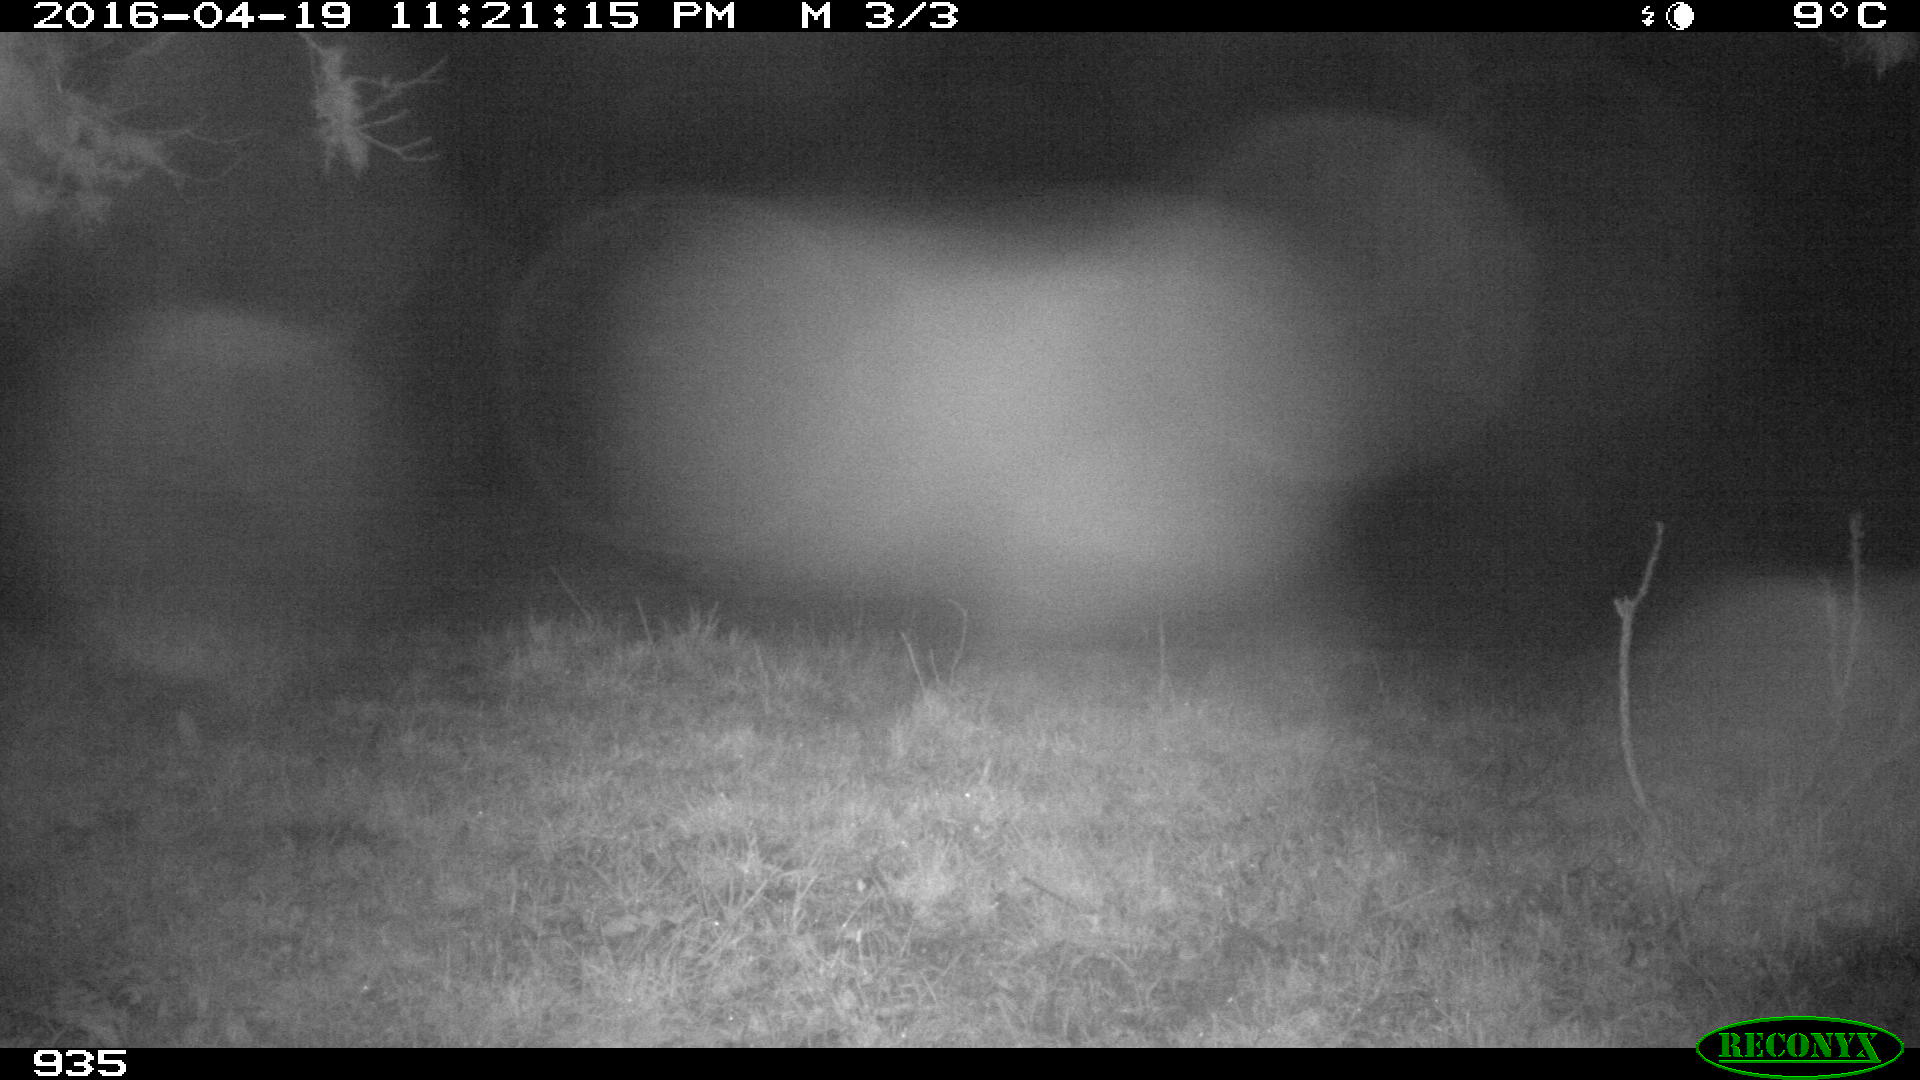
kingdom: Animalia
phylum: Chordata
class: Mammalia
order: Artiodactyla
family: Suidae
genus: Sus
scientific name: Sus scrofa
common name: Wild boar
